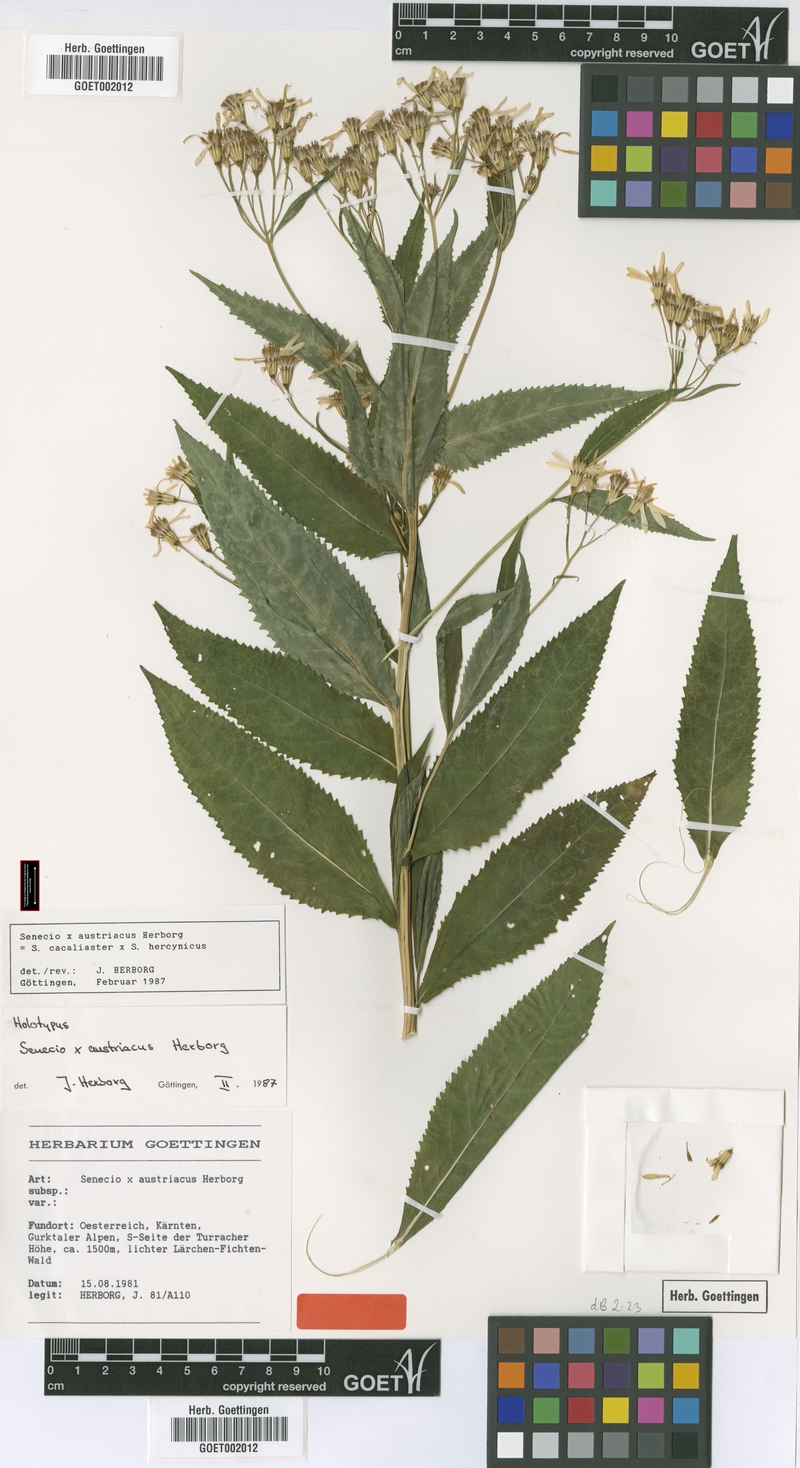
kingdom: Plantae
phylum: Tracheophyta
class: Magnoliopsida
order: Asterales
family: Asteraceae
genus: Senecio
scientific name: Senecio austriacus
